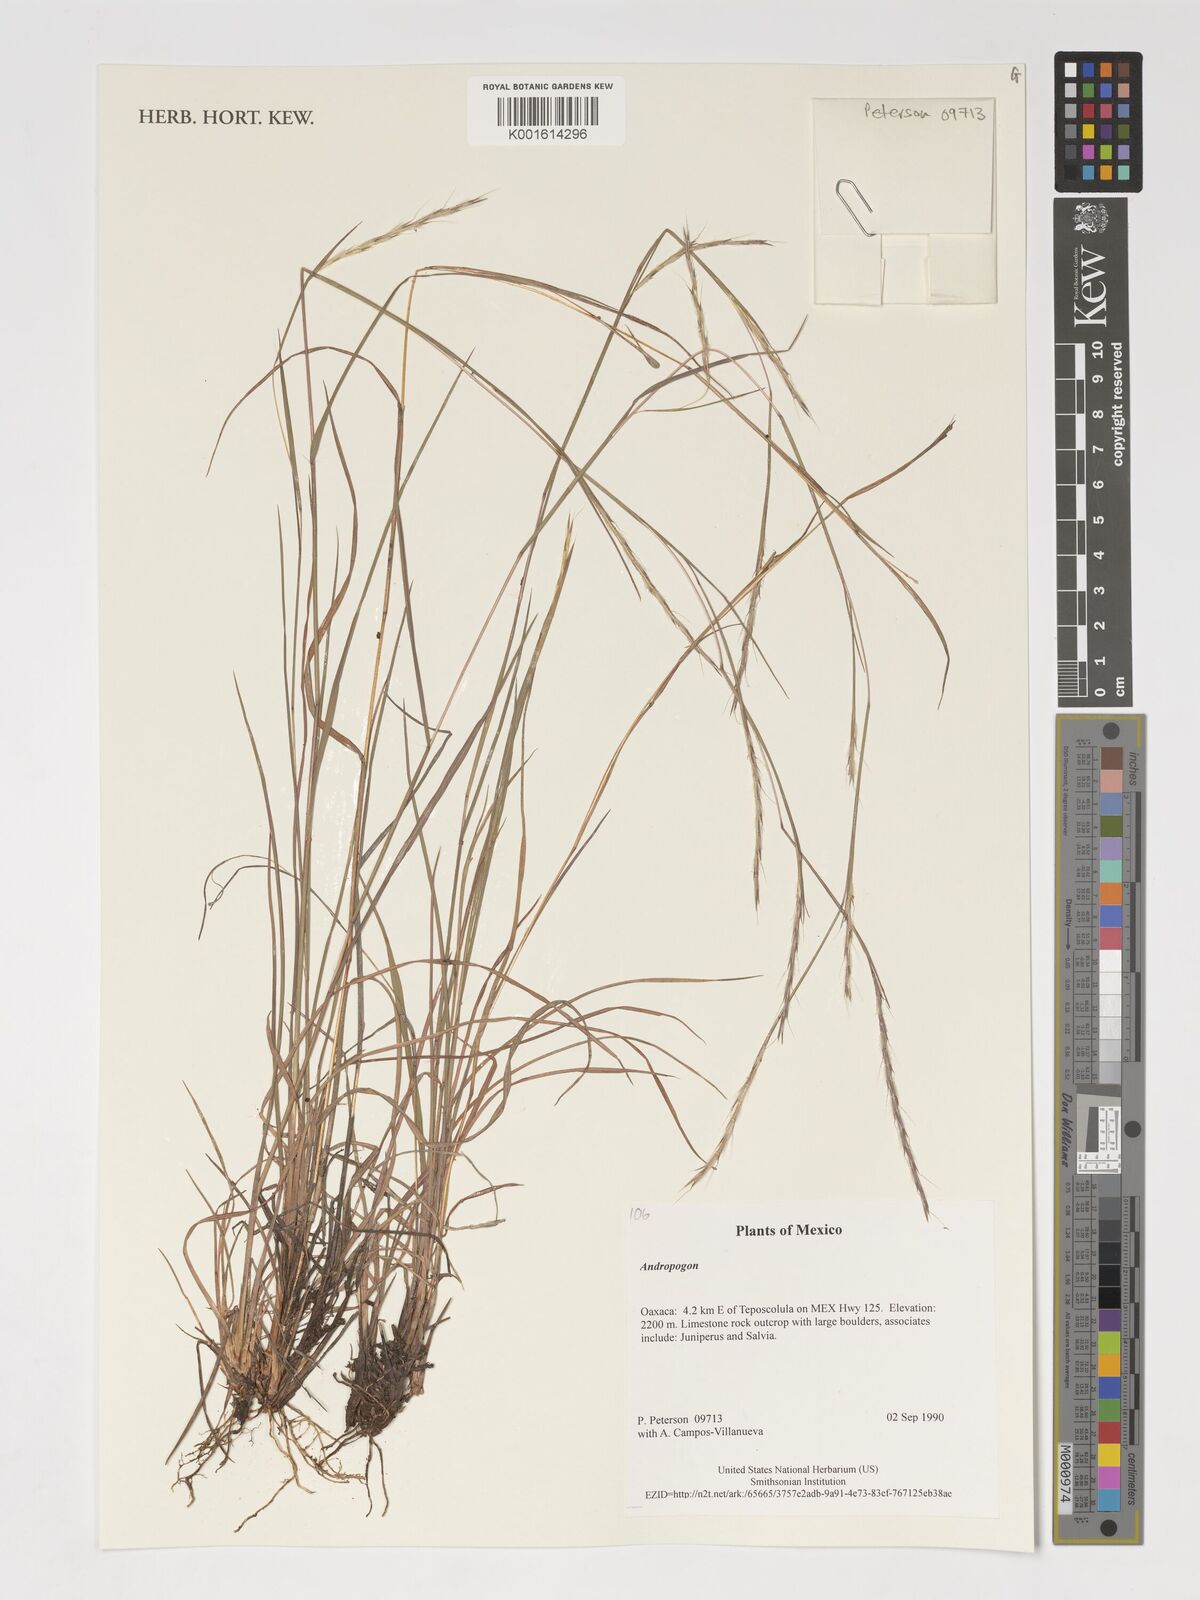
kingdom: Plantae
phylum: Tracheophyta
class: Liliopsida
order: Poales
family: Poaceae
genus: Andropogon
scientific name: Andropogon
